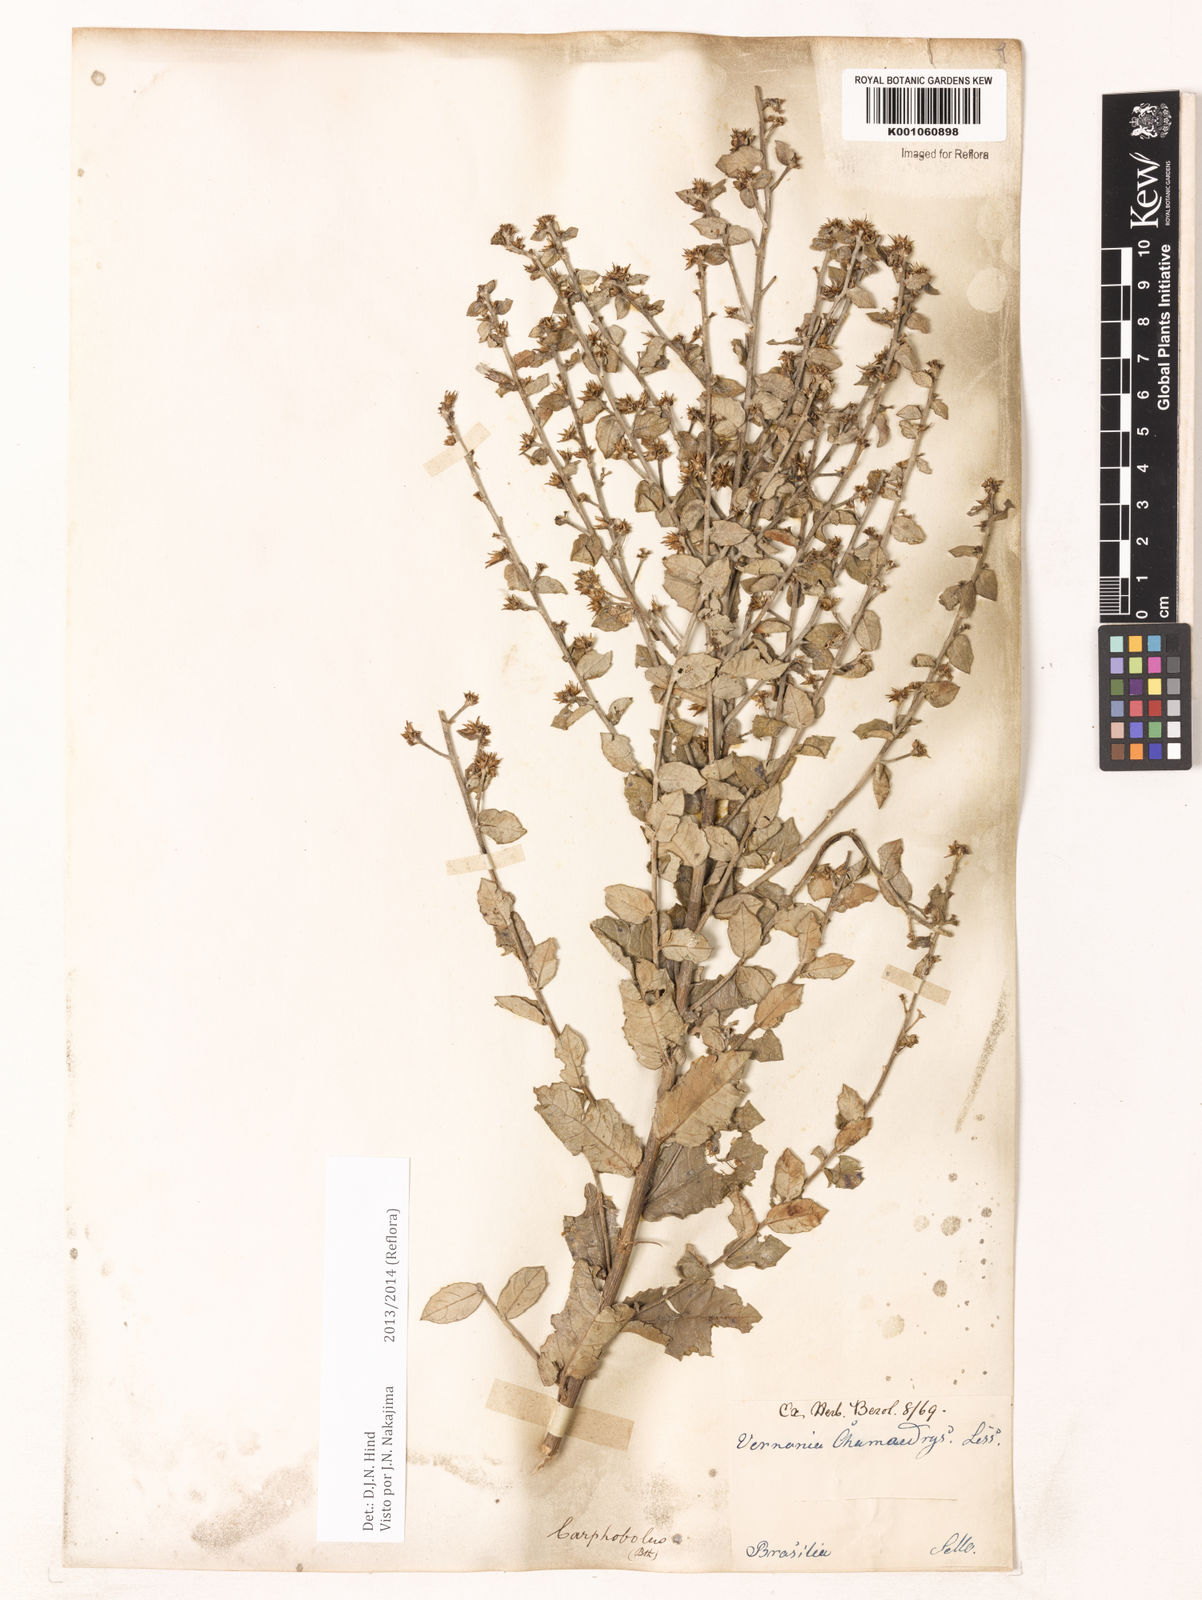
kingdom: Plantae
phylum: Tracheophyta
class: Magnoliopsida
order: Asterales
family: Asteraceae
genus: Vernonanthura
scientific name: Vernonanthura chamaedrys
